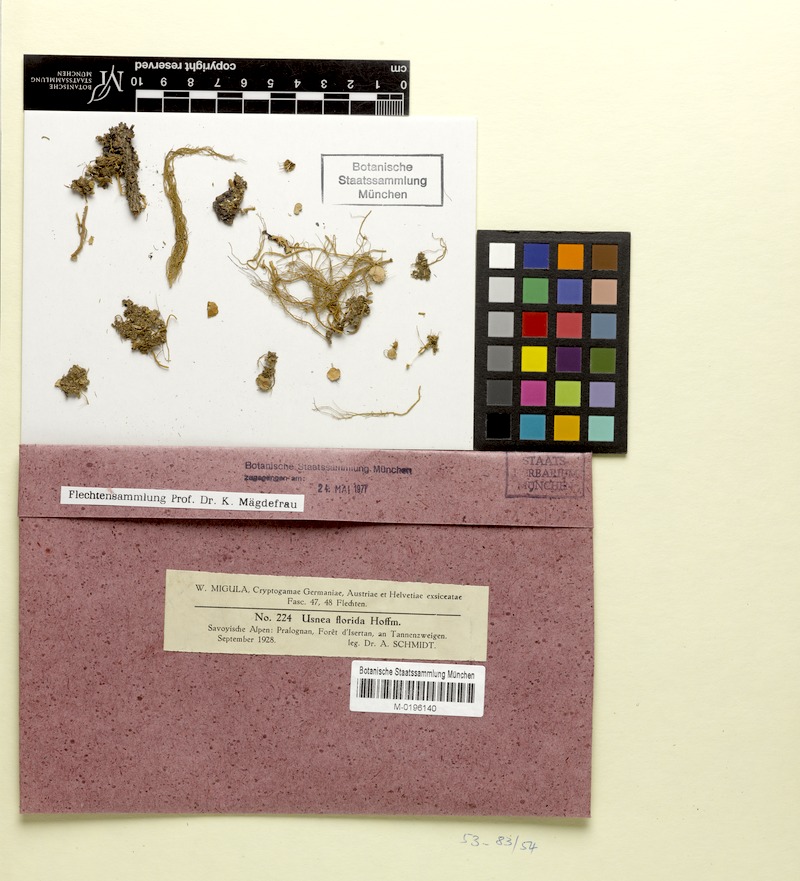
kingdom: Fungi
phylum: Ascomycota
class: Lecanoromycetes
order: Lecanorales
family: Parmeliaceae
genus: Usnea
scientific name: Usnea florida
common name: Witches' whiskers lichen
